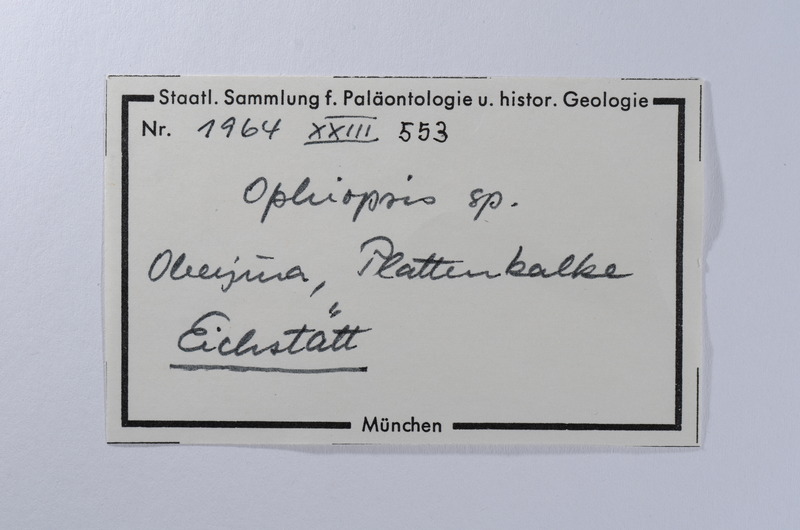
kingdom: Animalia
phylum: Chordata
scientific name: Chordata
